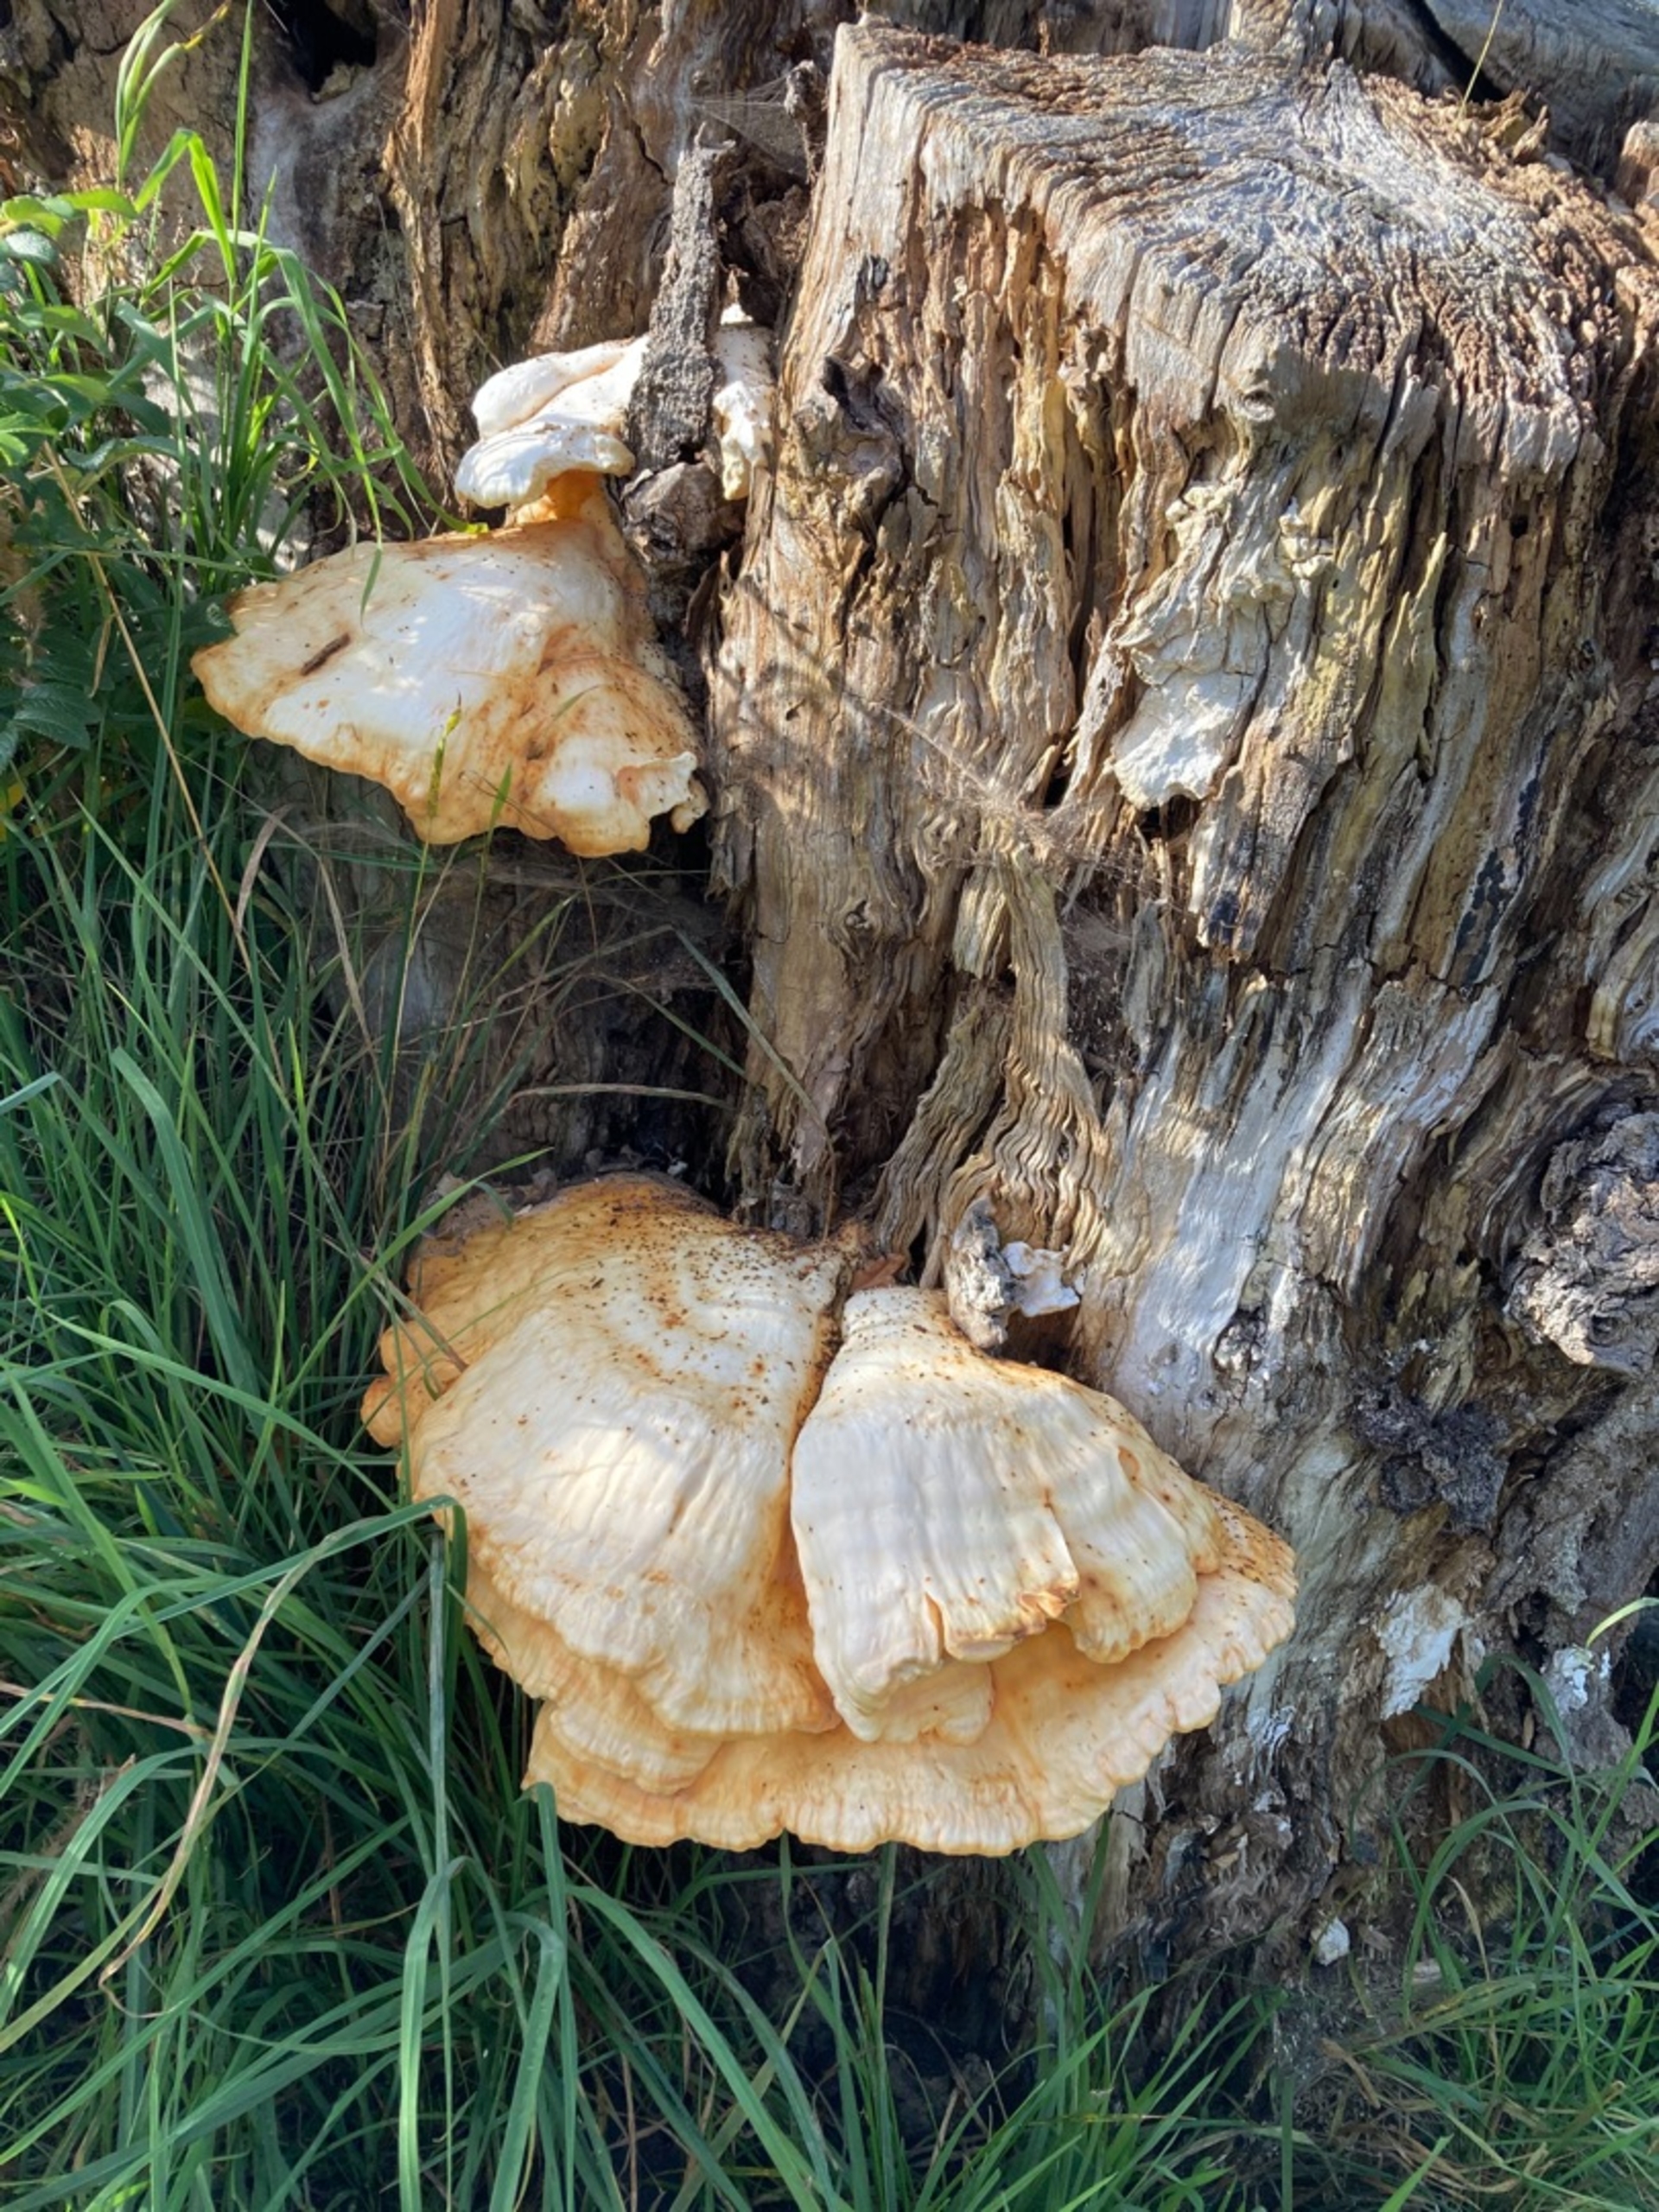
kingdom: Fungi
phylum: Basidiomycota
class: Agaricomycetes
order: Polyporales
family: Laetiporaceae
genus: Laetiporus
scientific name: Laetiporus sulphureus
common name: Svovlporesvamp
